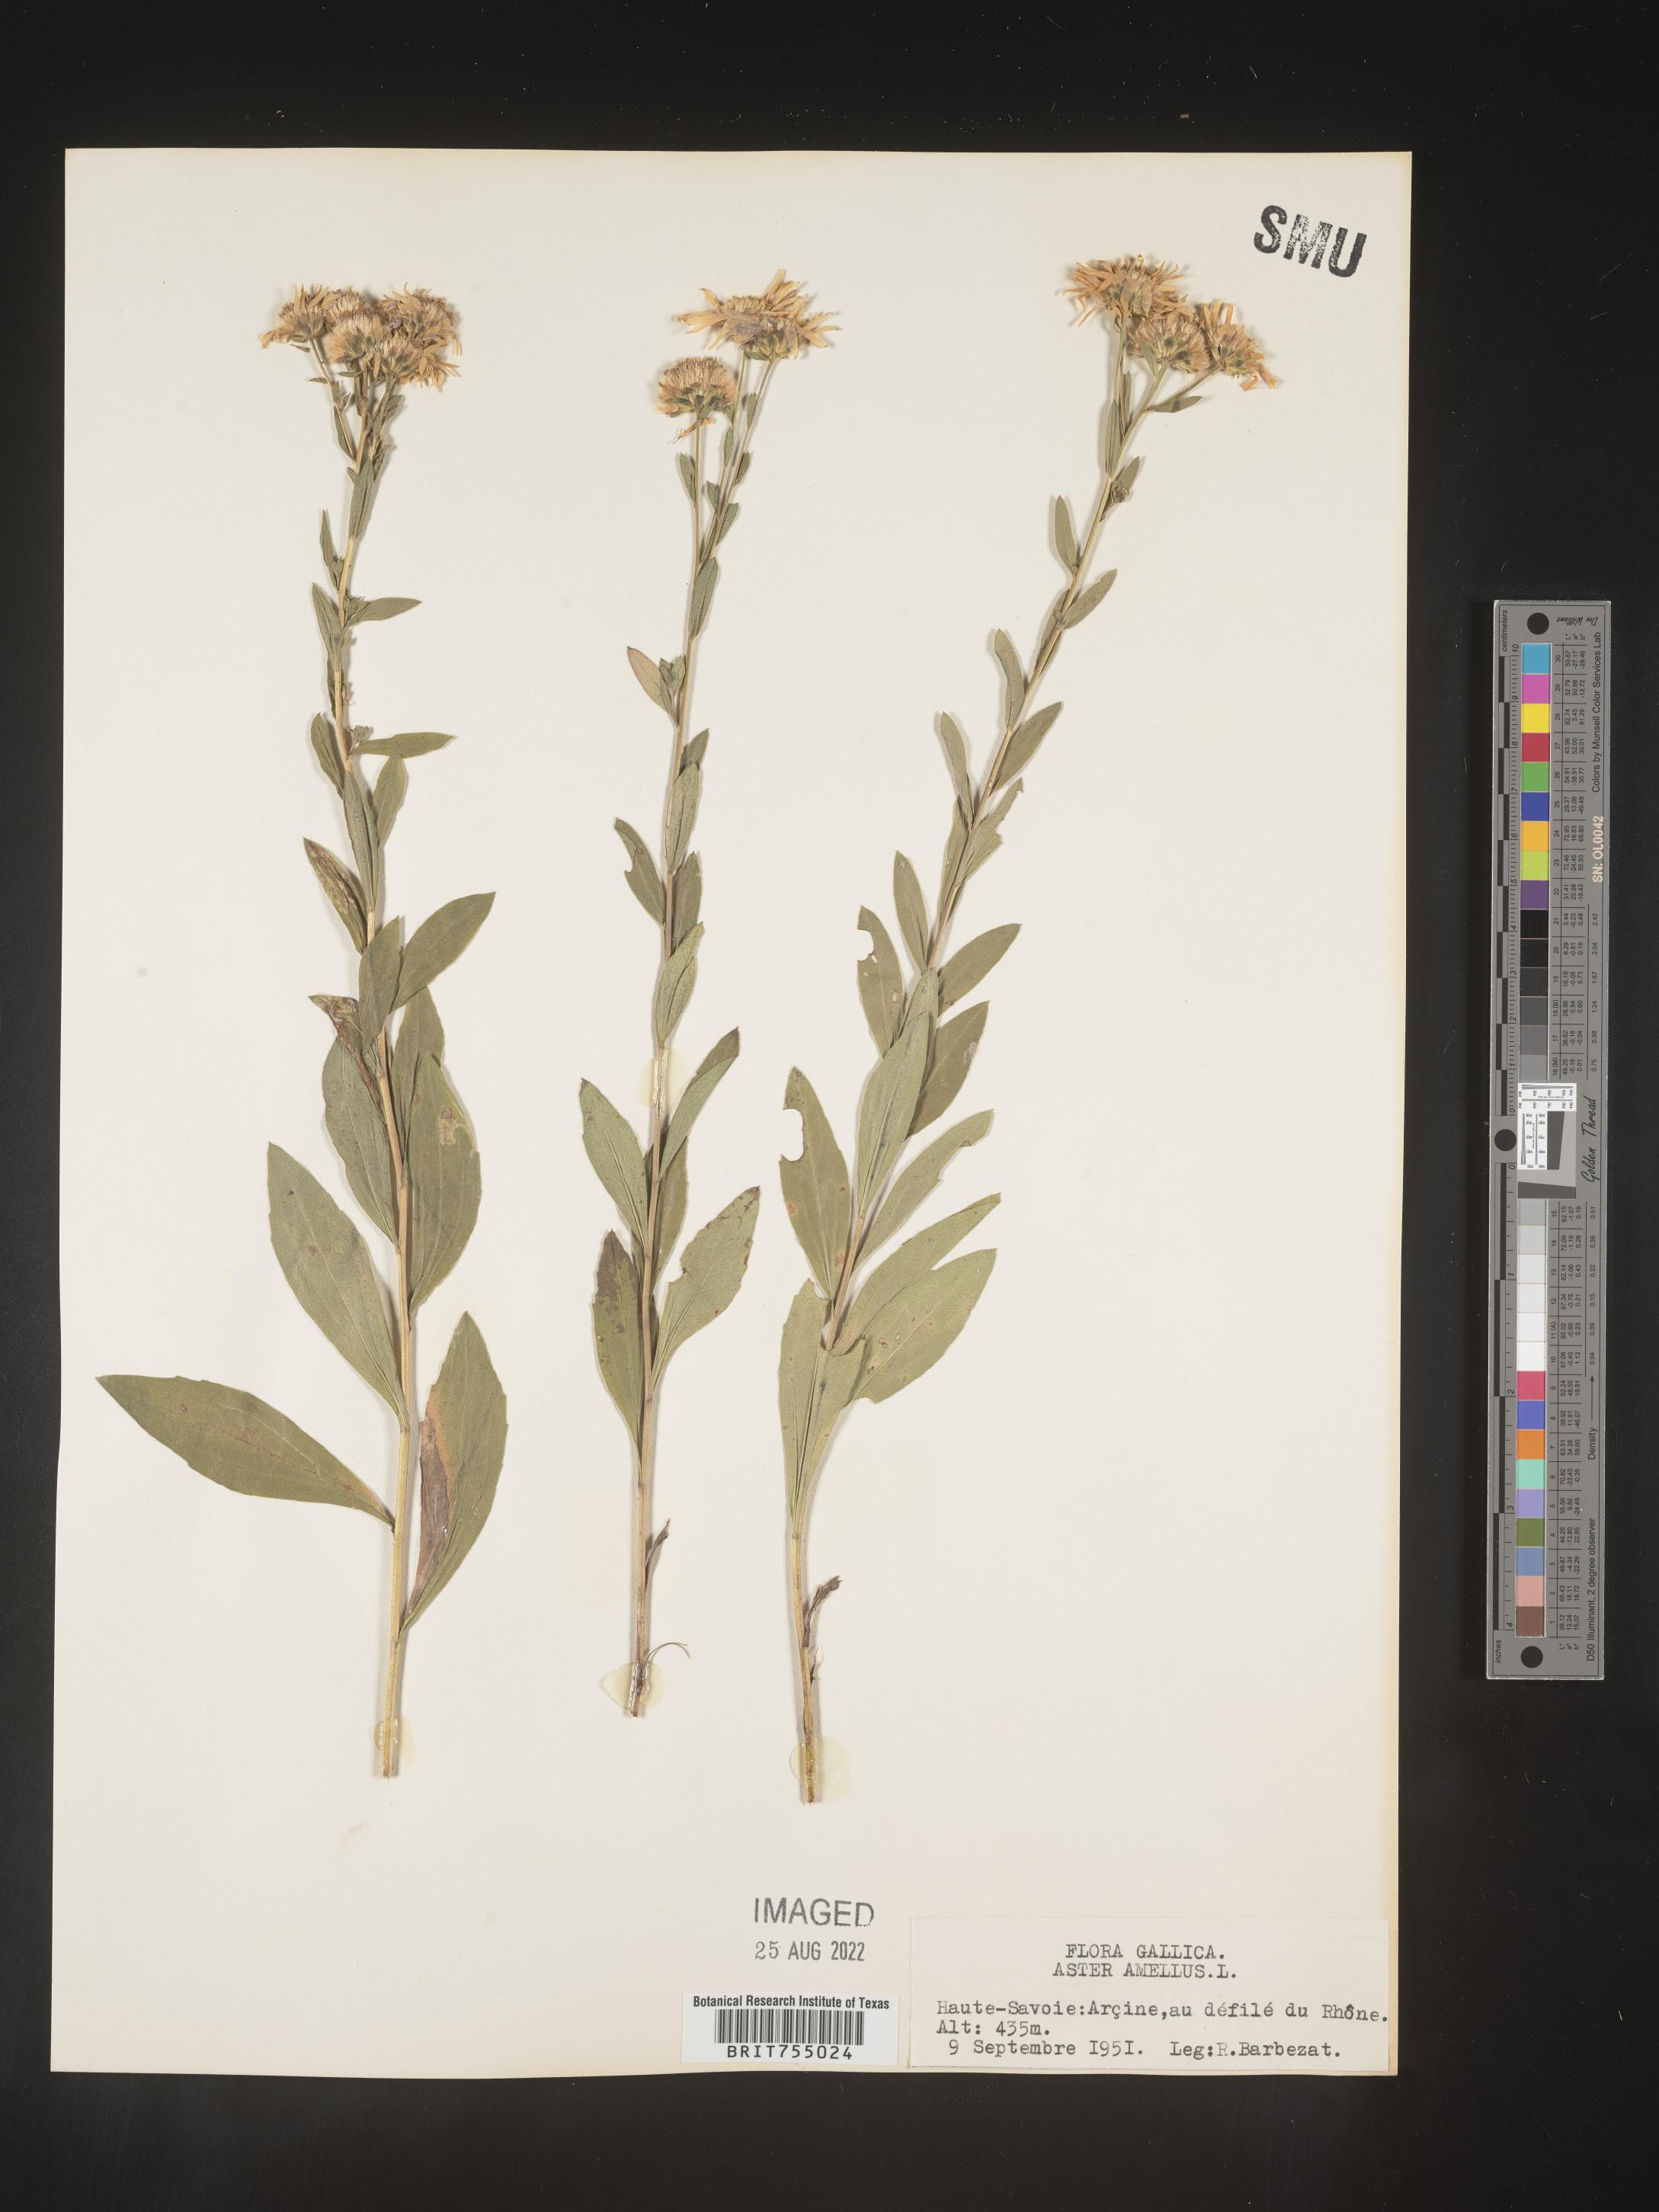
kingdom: Plantae
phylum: Tracheophyta
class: Magnoliopsida
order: Asterales
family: Asteraceae
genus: Symphyotrichum
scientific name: Symphyotrichum
